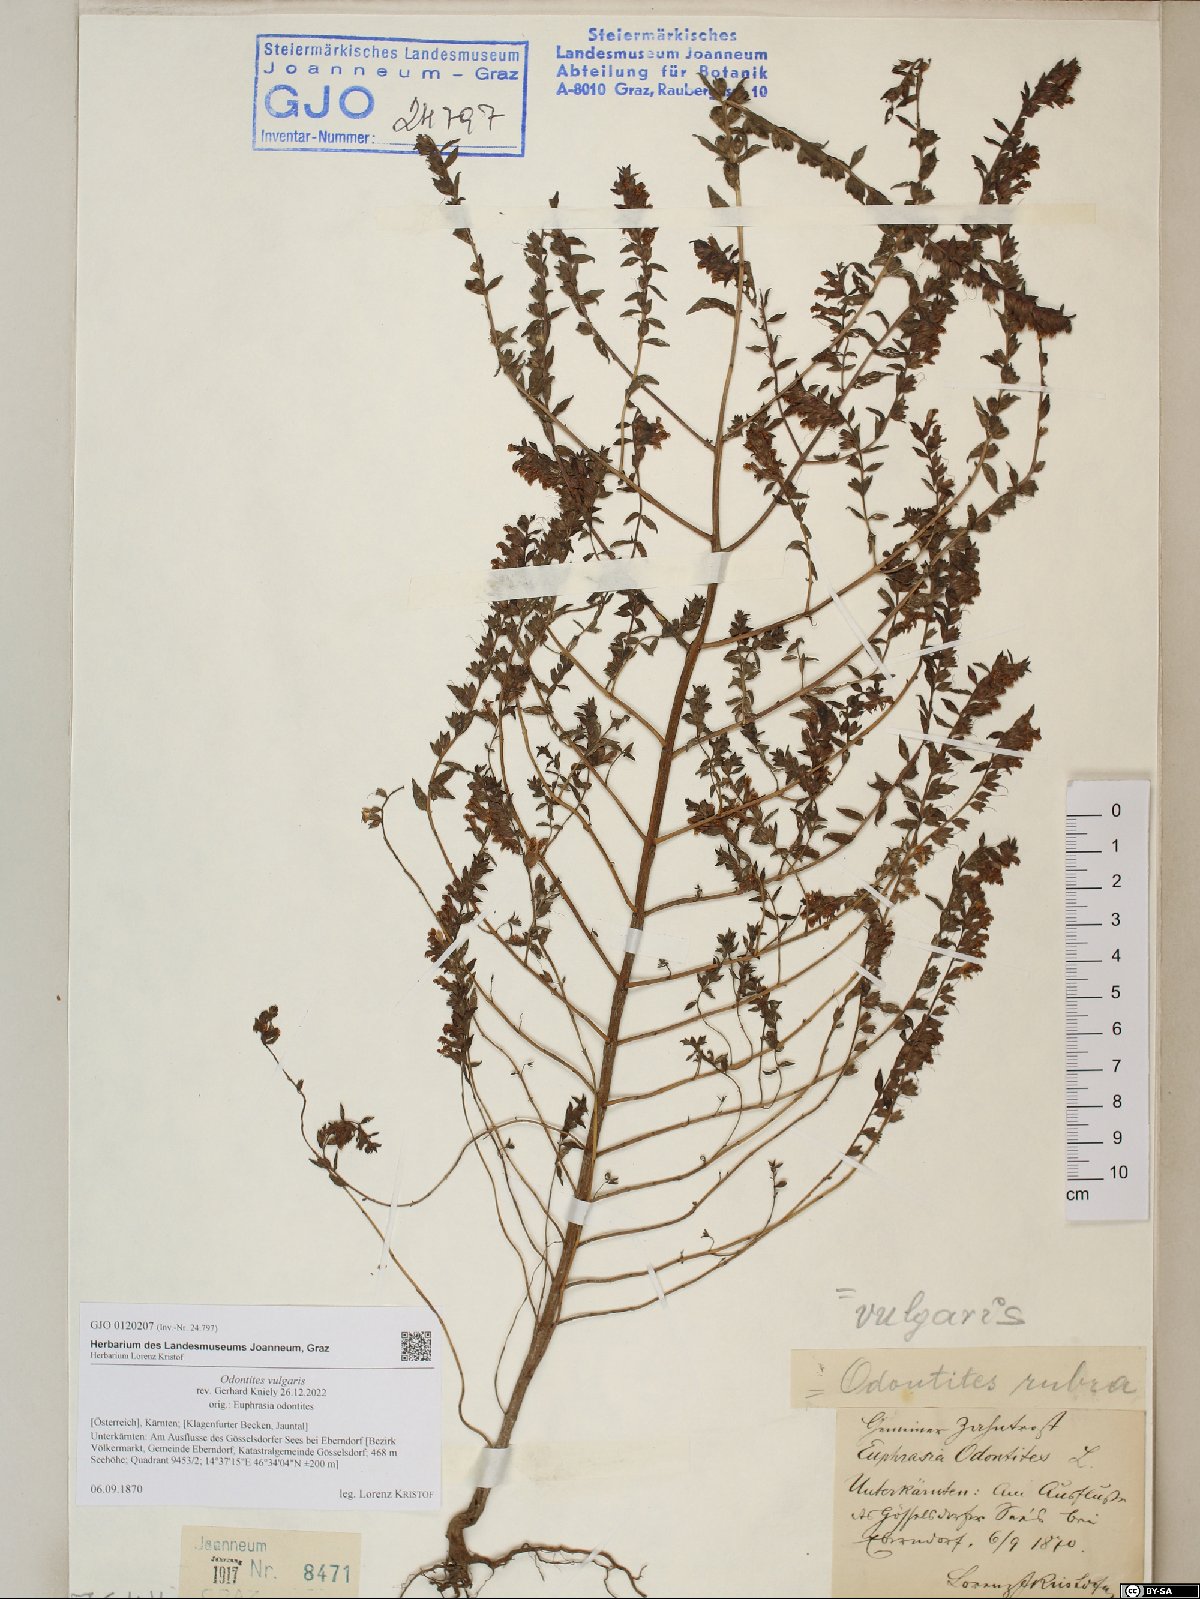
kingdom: Plantae
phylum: Tracheophyta
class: Magnoliopsida
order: Lamiales
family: Orobanchaceae
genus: Odontites
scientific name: Odontites vulgaris
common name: Broomrape
